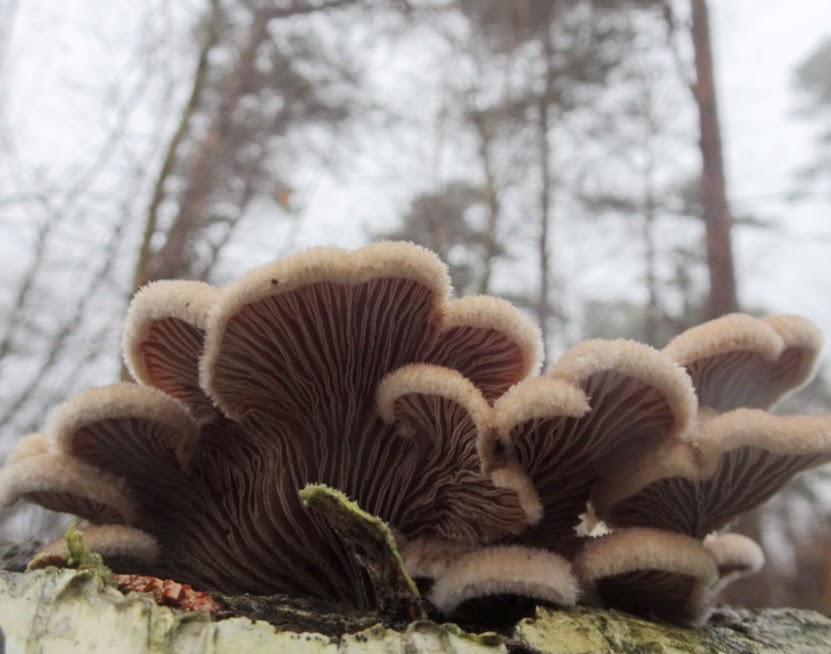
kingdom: Fungi
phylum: Basidiomycota
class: Agaricomycetes
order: Agaricales
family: Schizophyllaceae
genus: Schizophyllum
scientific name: Schizophyllum commune
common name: kløvblad
